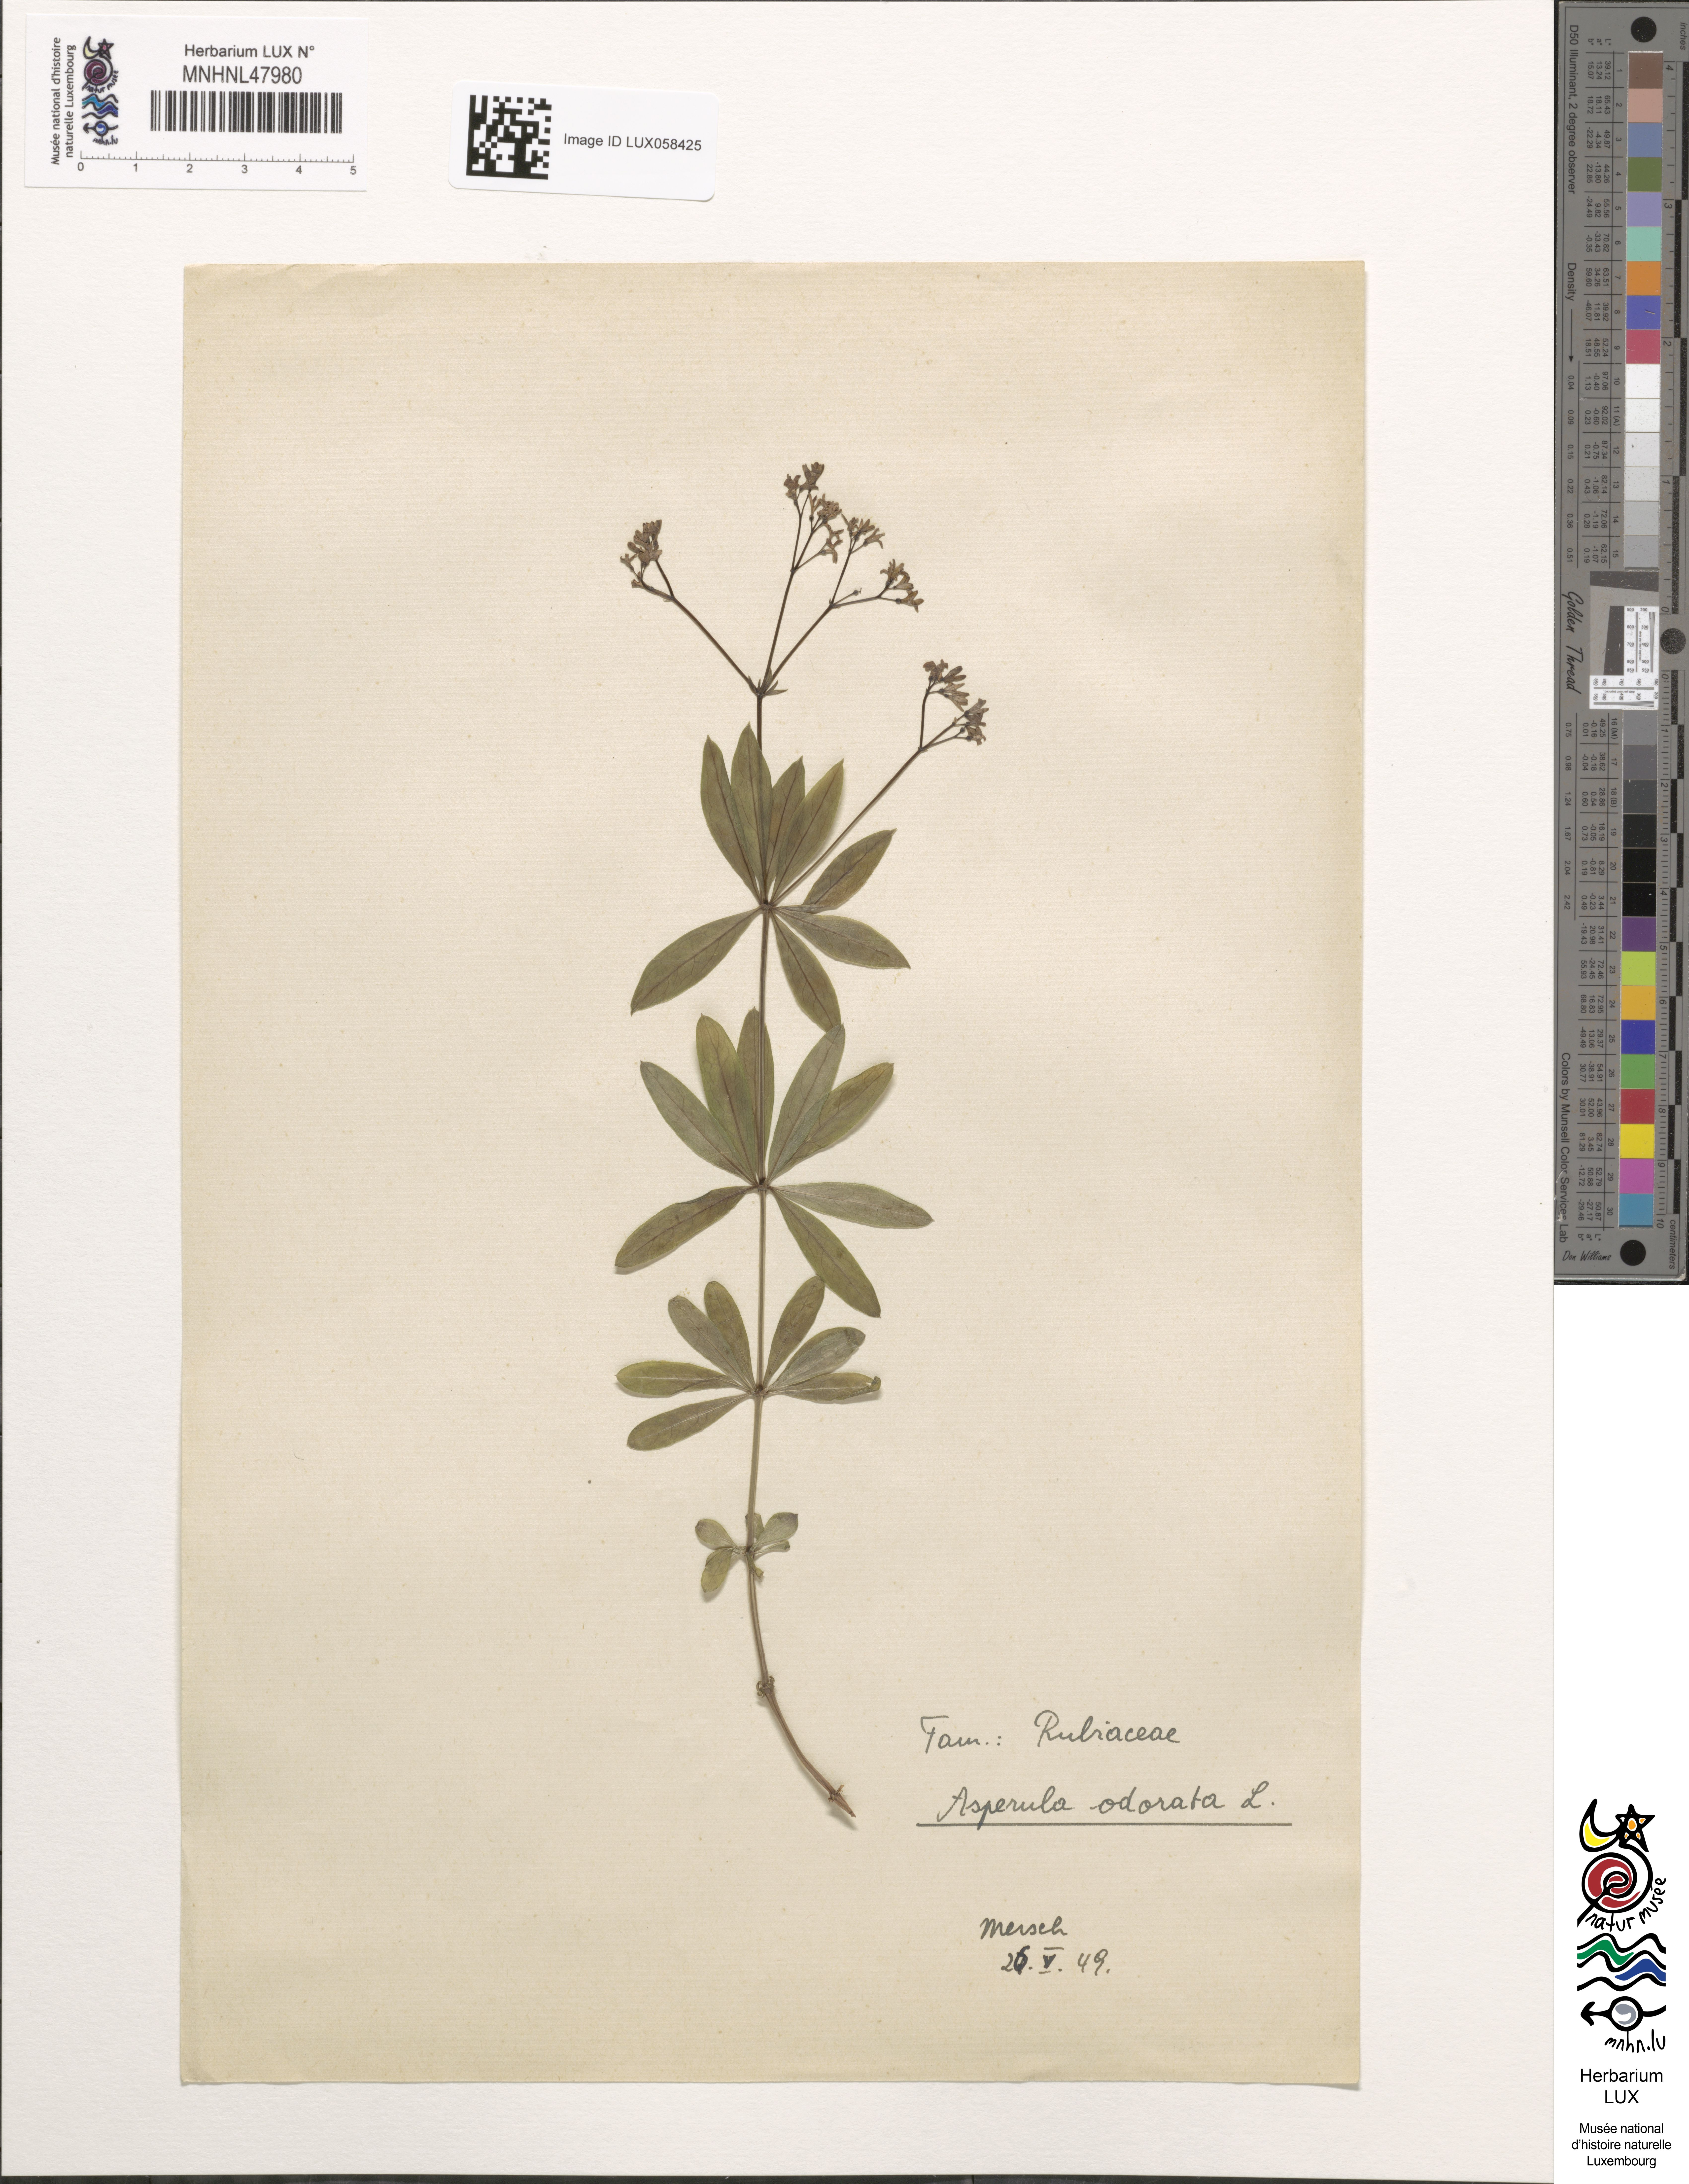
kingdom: Plantae
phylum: Tracheophyta
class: Magnoliopsida
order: Gentianales
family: Rubiaceae
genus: Galium
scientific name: Galium odoratum
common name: Sweet woodruff
